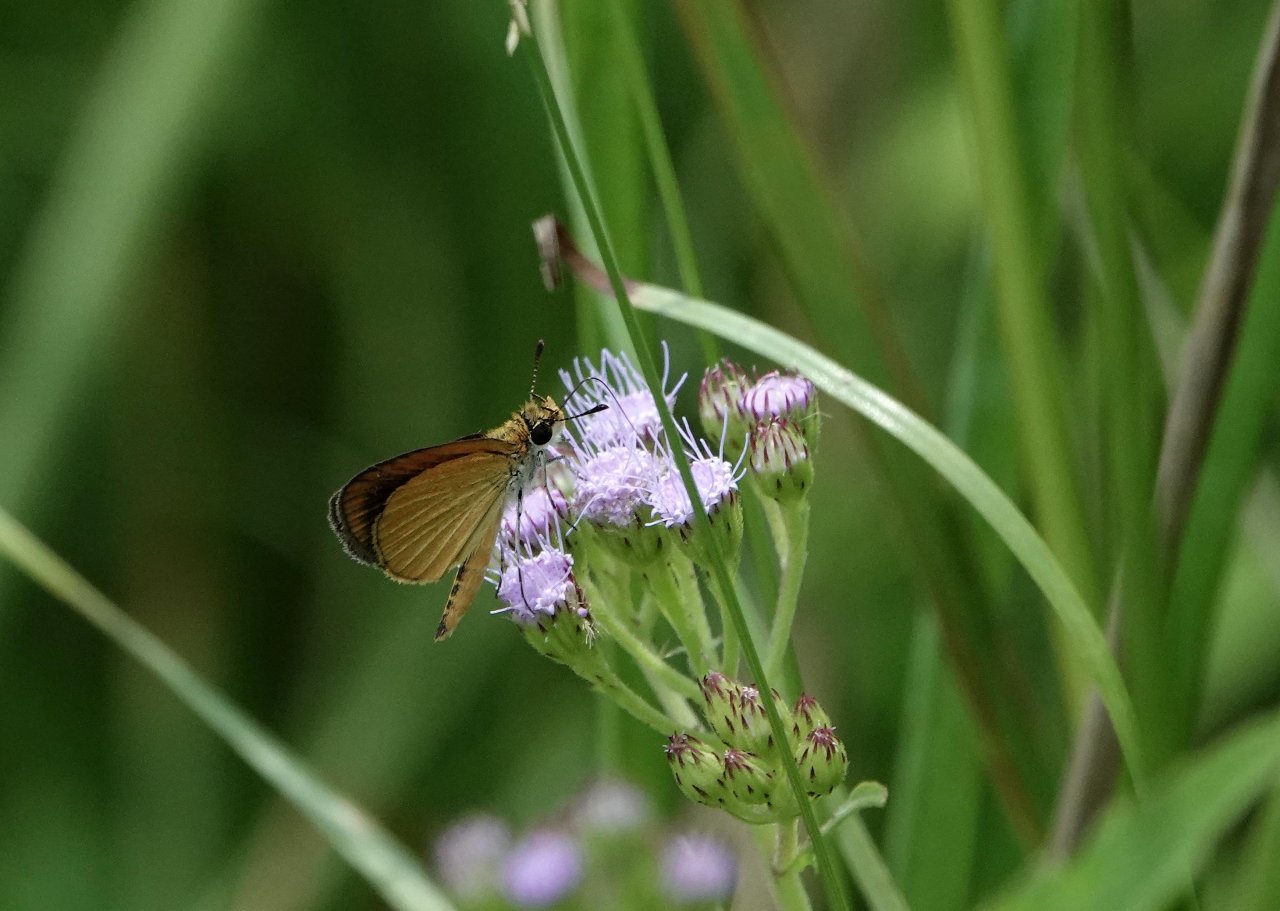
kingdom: Animalia
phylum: Arthropoda
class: Insecta
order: Lepidoptera
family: Hesperiidae
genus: Ancyloxypha
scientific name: Ancyloxypha numitor
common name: Least Skipper
